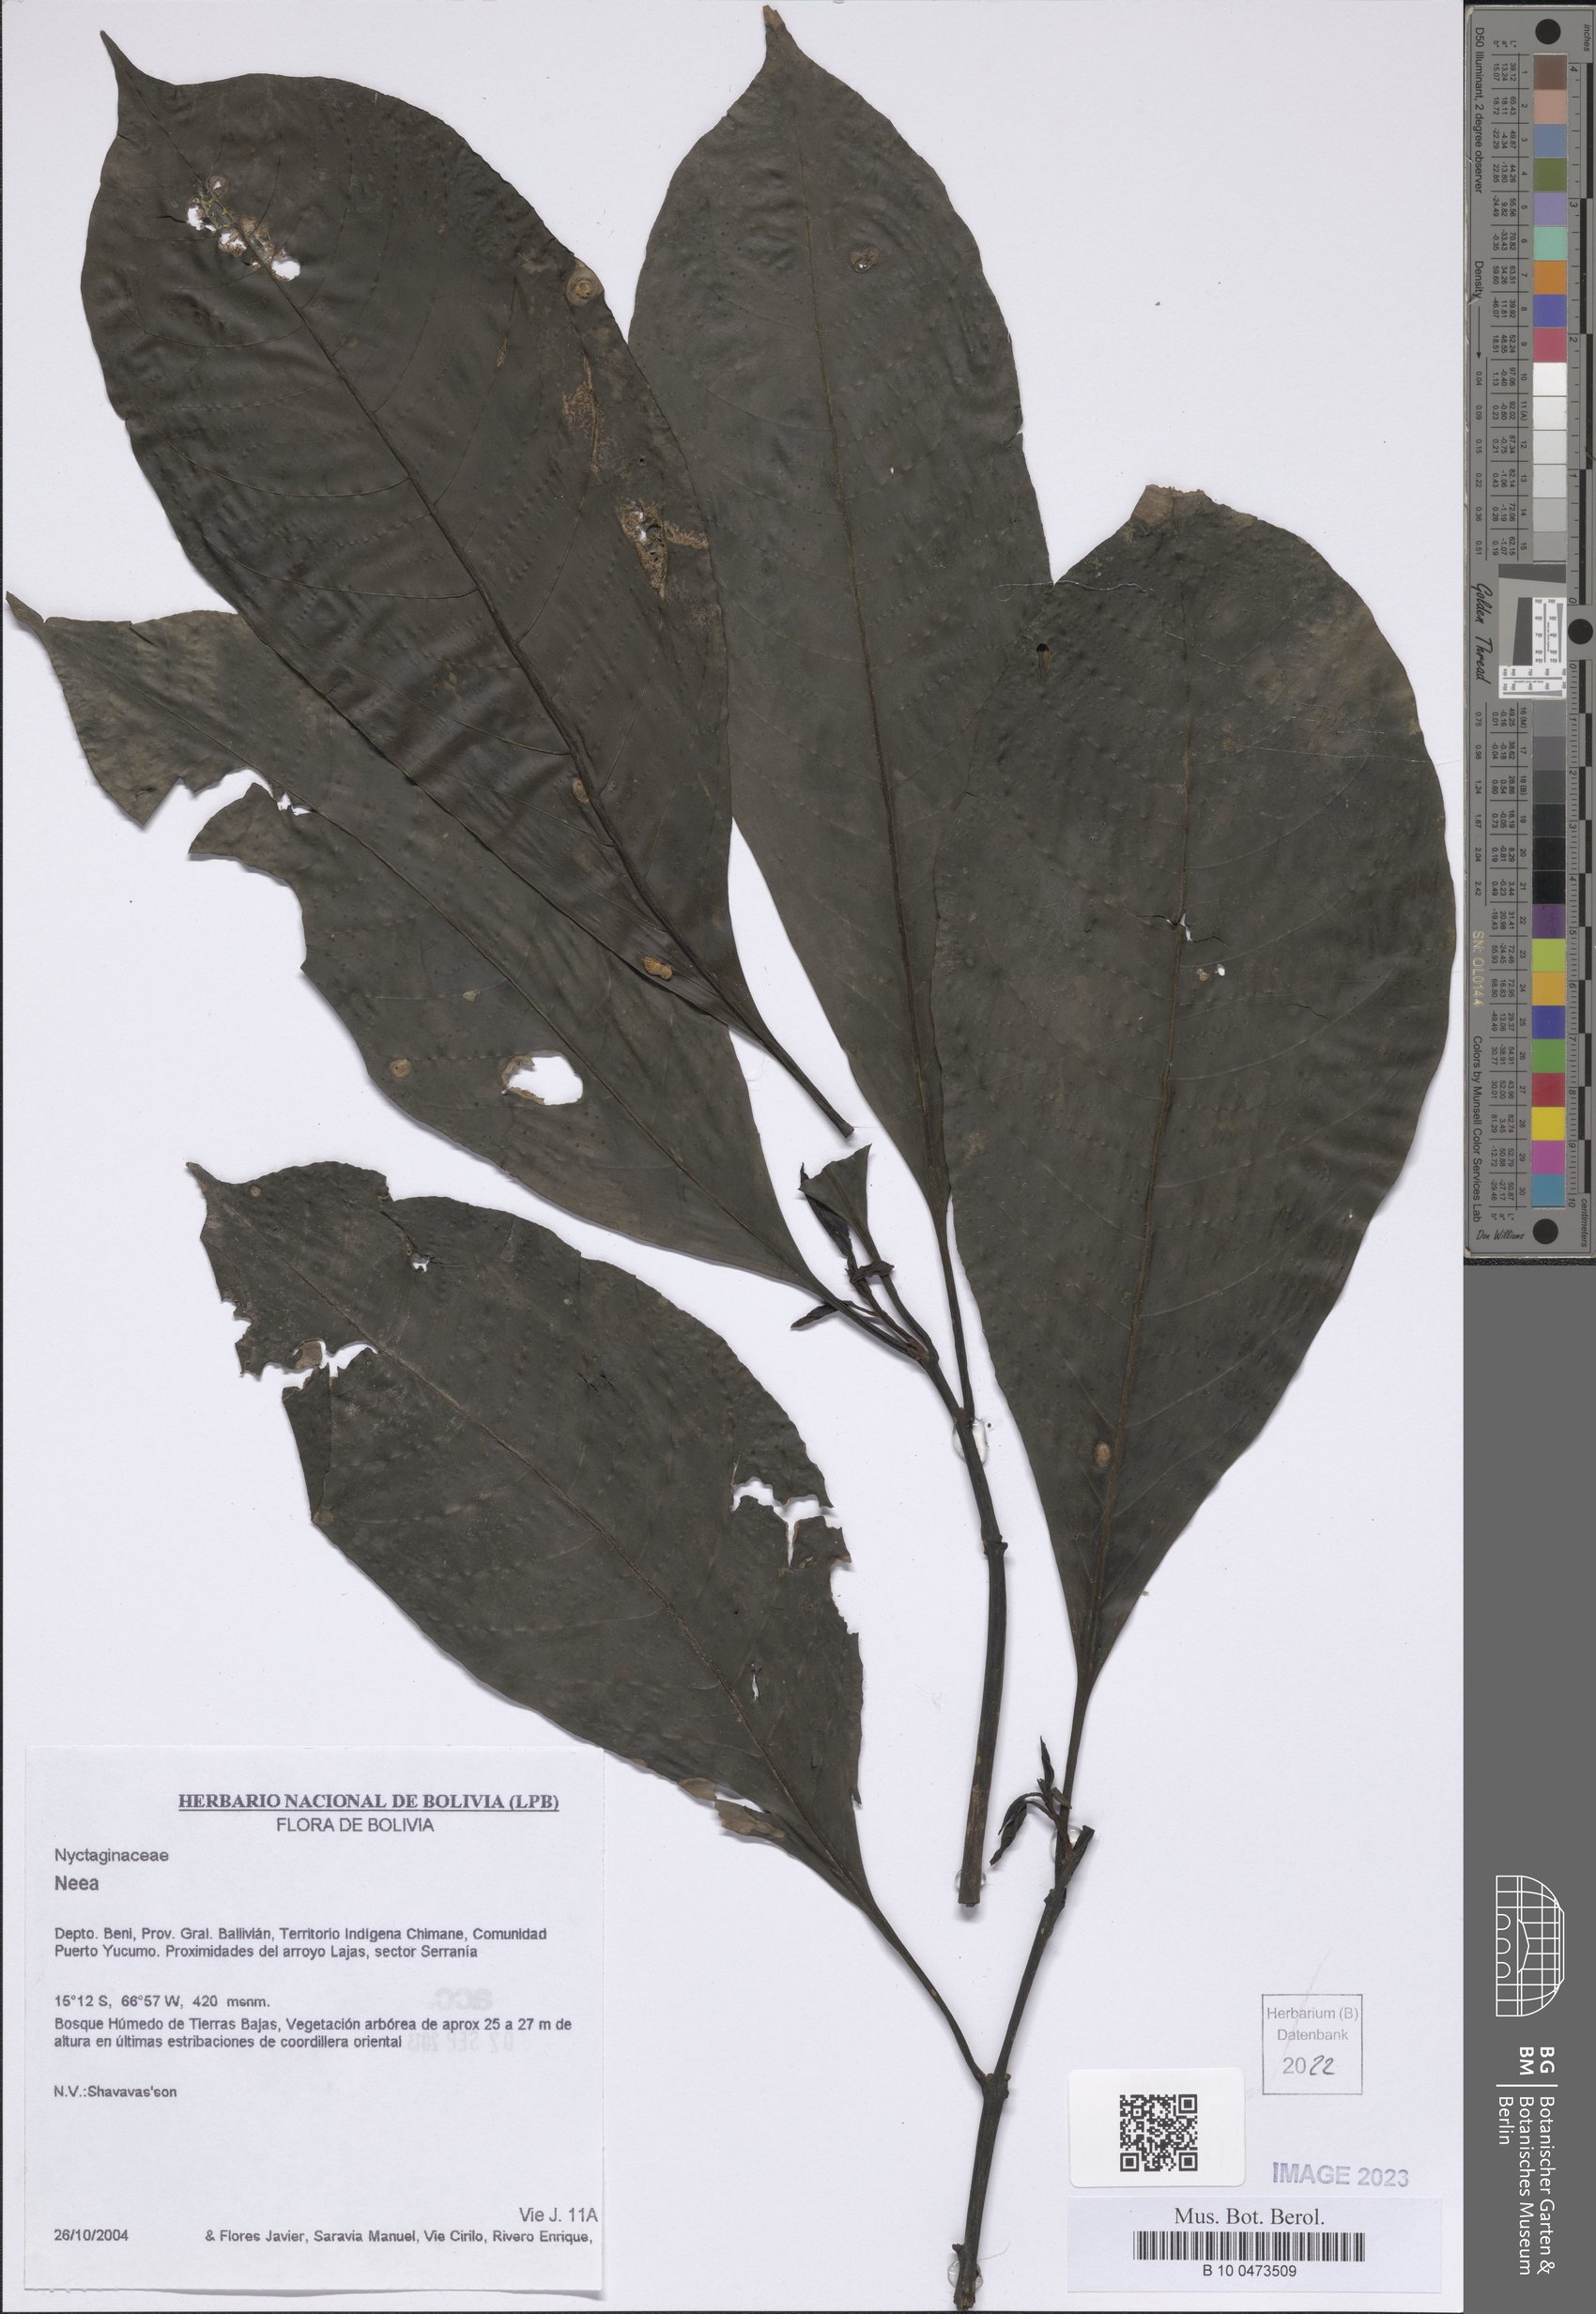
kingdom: Plantae
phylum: Tracheophyta
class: Magnoliopsida
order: Caryophyllales
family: Nyctaginaceae
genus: Neea
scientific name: Neea
